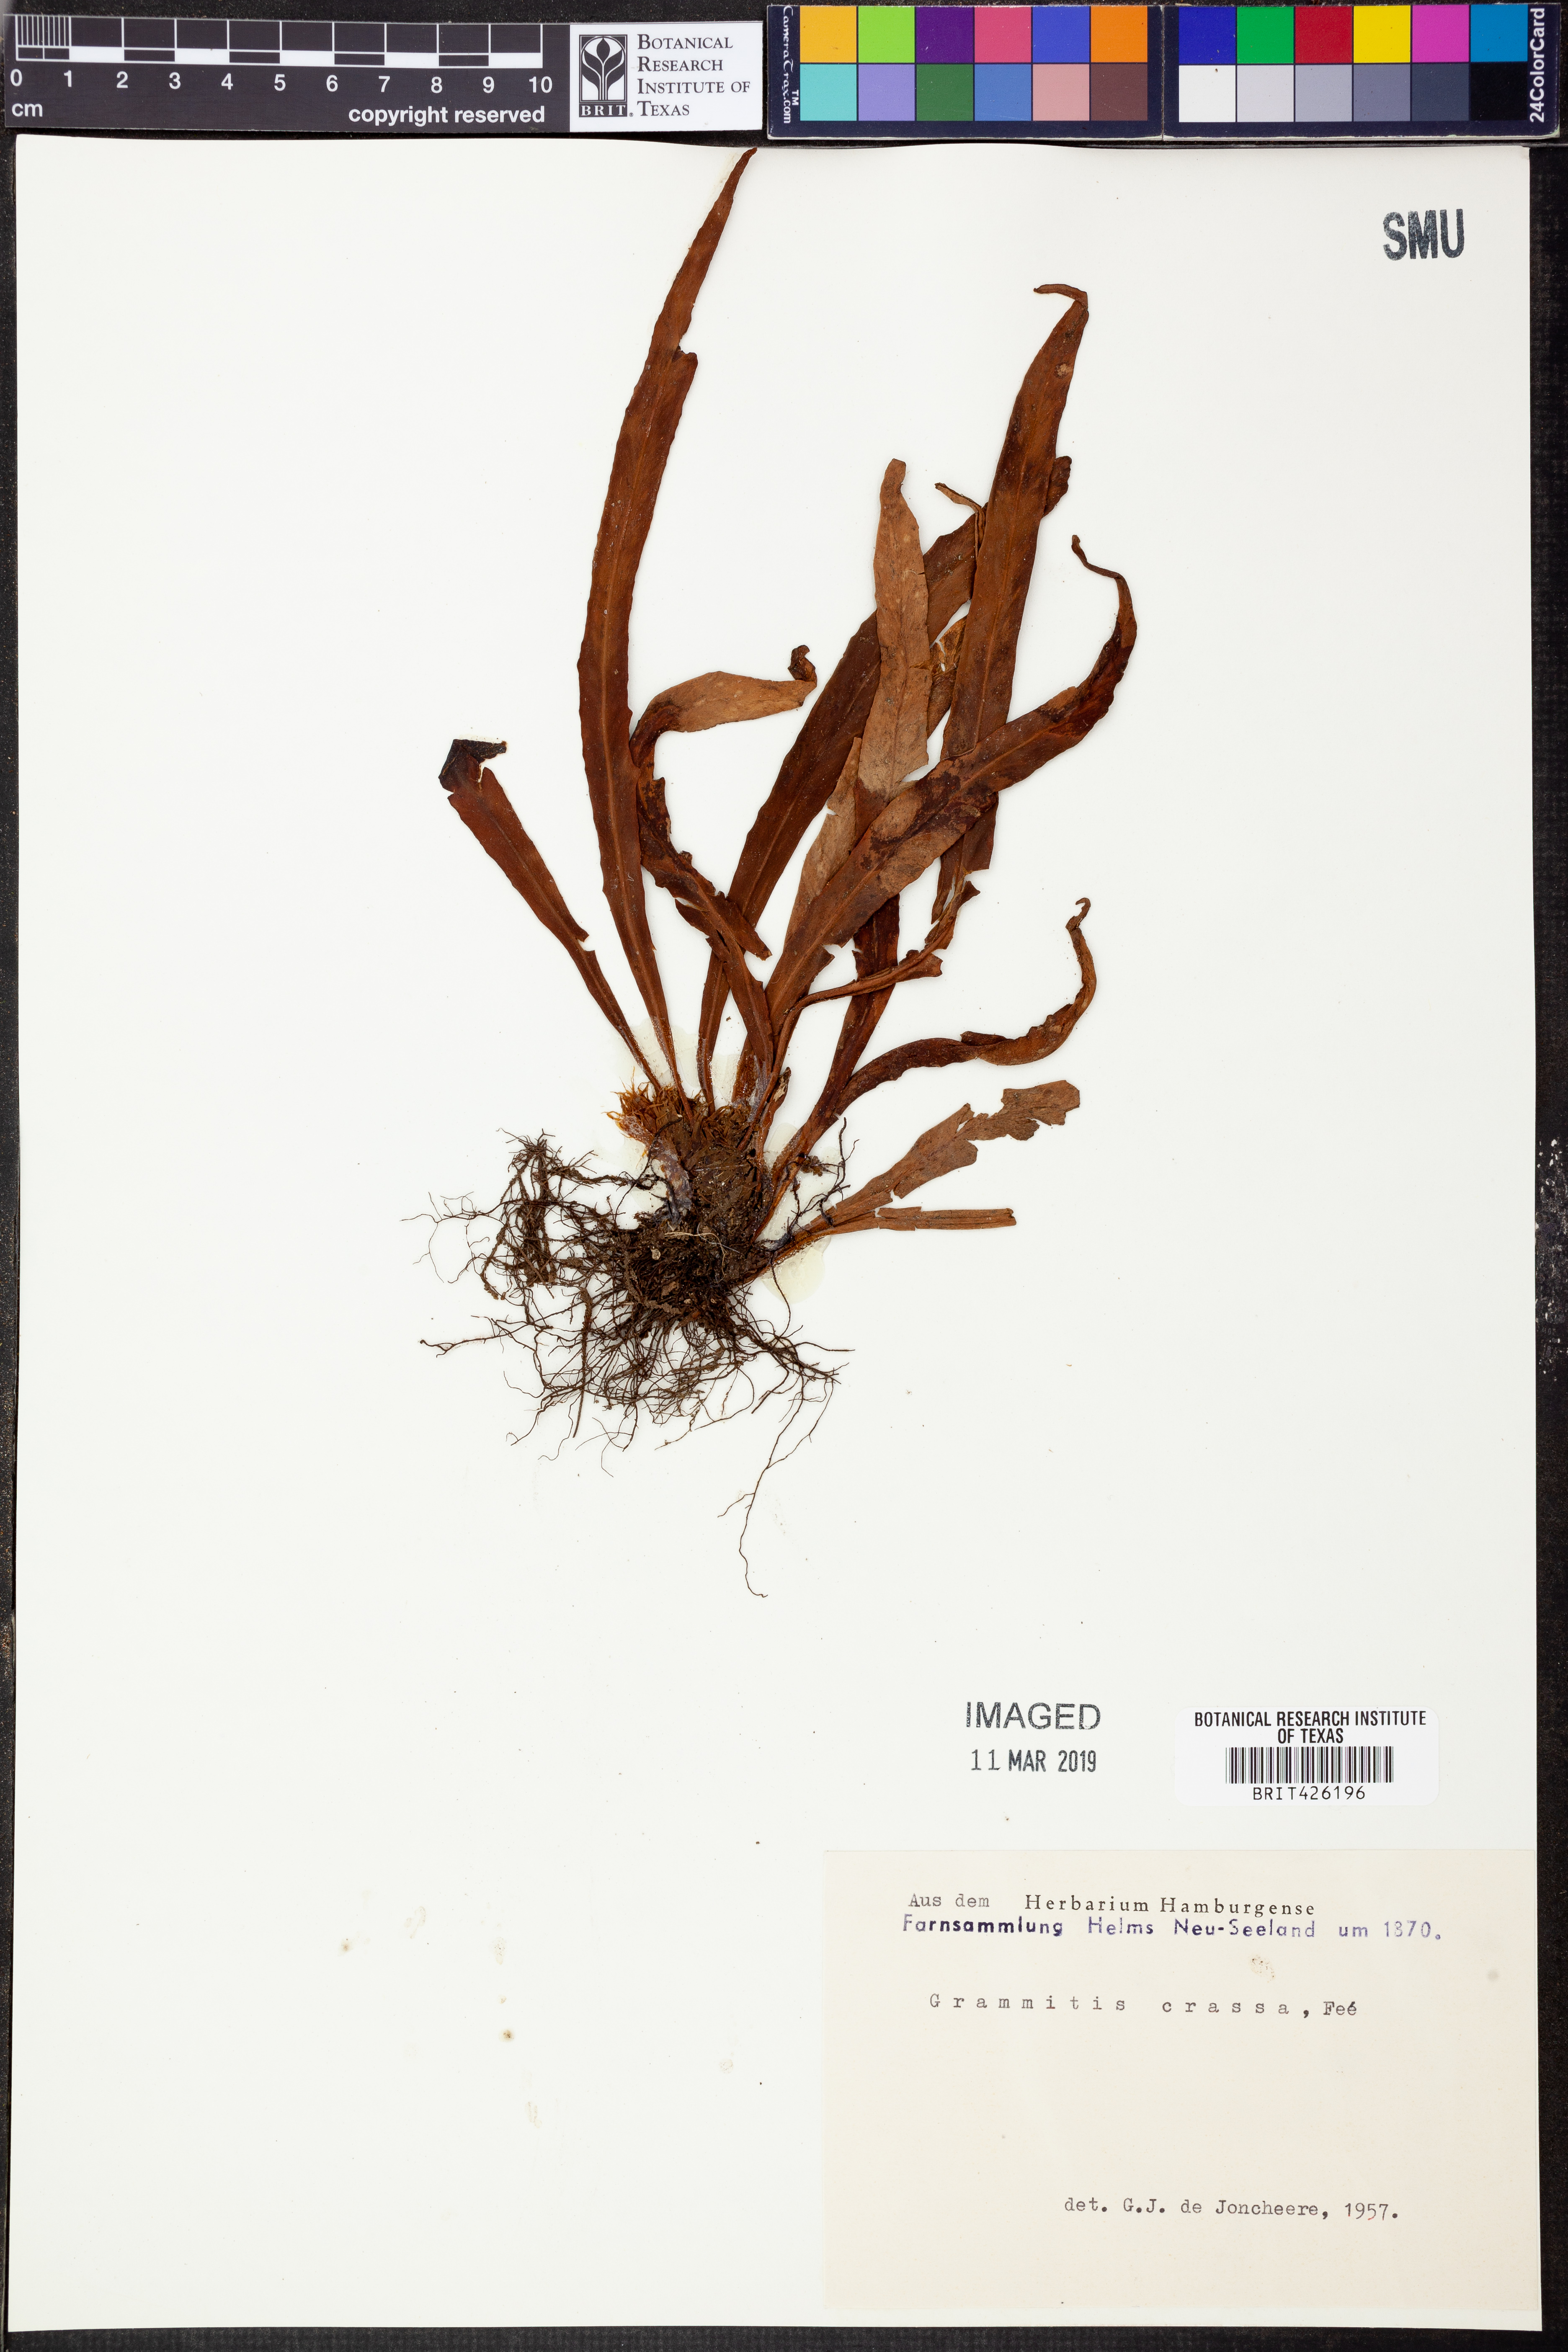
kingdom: Plantae
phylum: Tracheophyta
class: Polypodiopsida
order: Polypodiales
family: Polypodiaceae
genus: Notogrammitis
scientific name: Notogrammitis rigida
